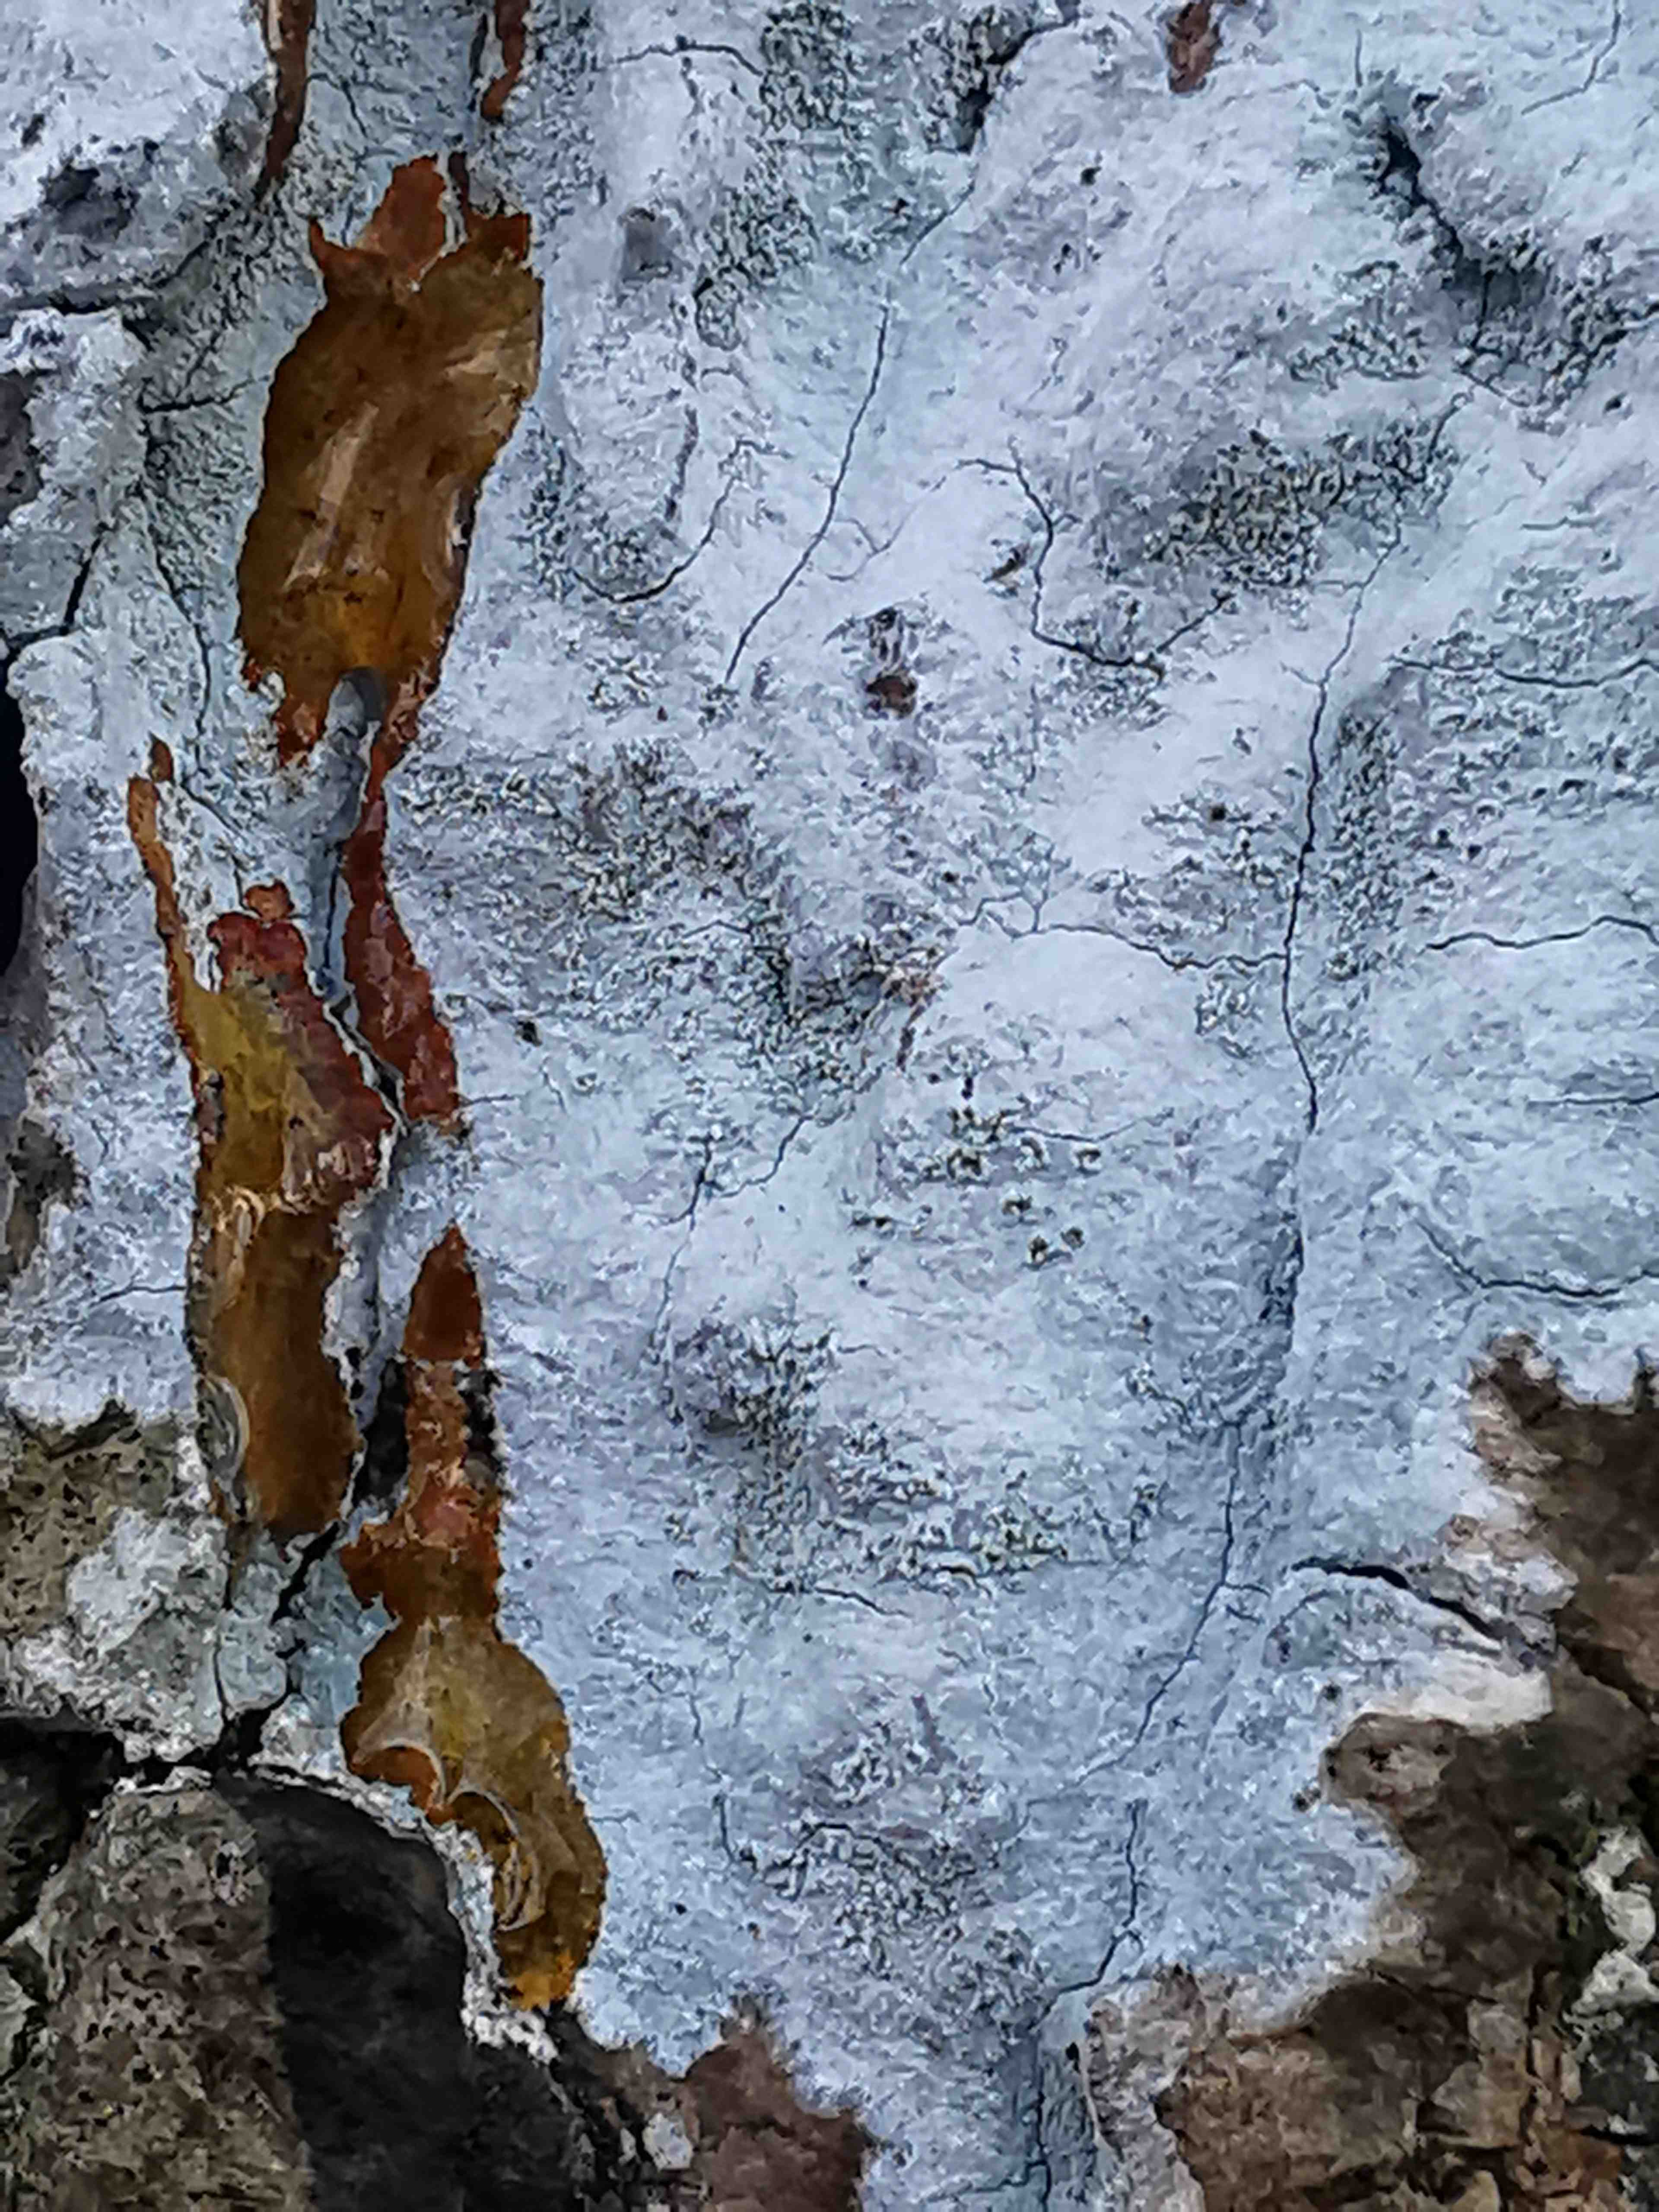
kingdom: Fungi
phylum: Ascomycota
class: Lecanoromycetes
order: Ostropales
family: Phlyctidaceae
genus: Phlyctis
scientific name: Phlyctis argena
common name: almindelig sølvlav
